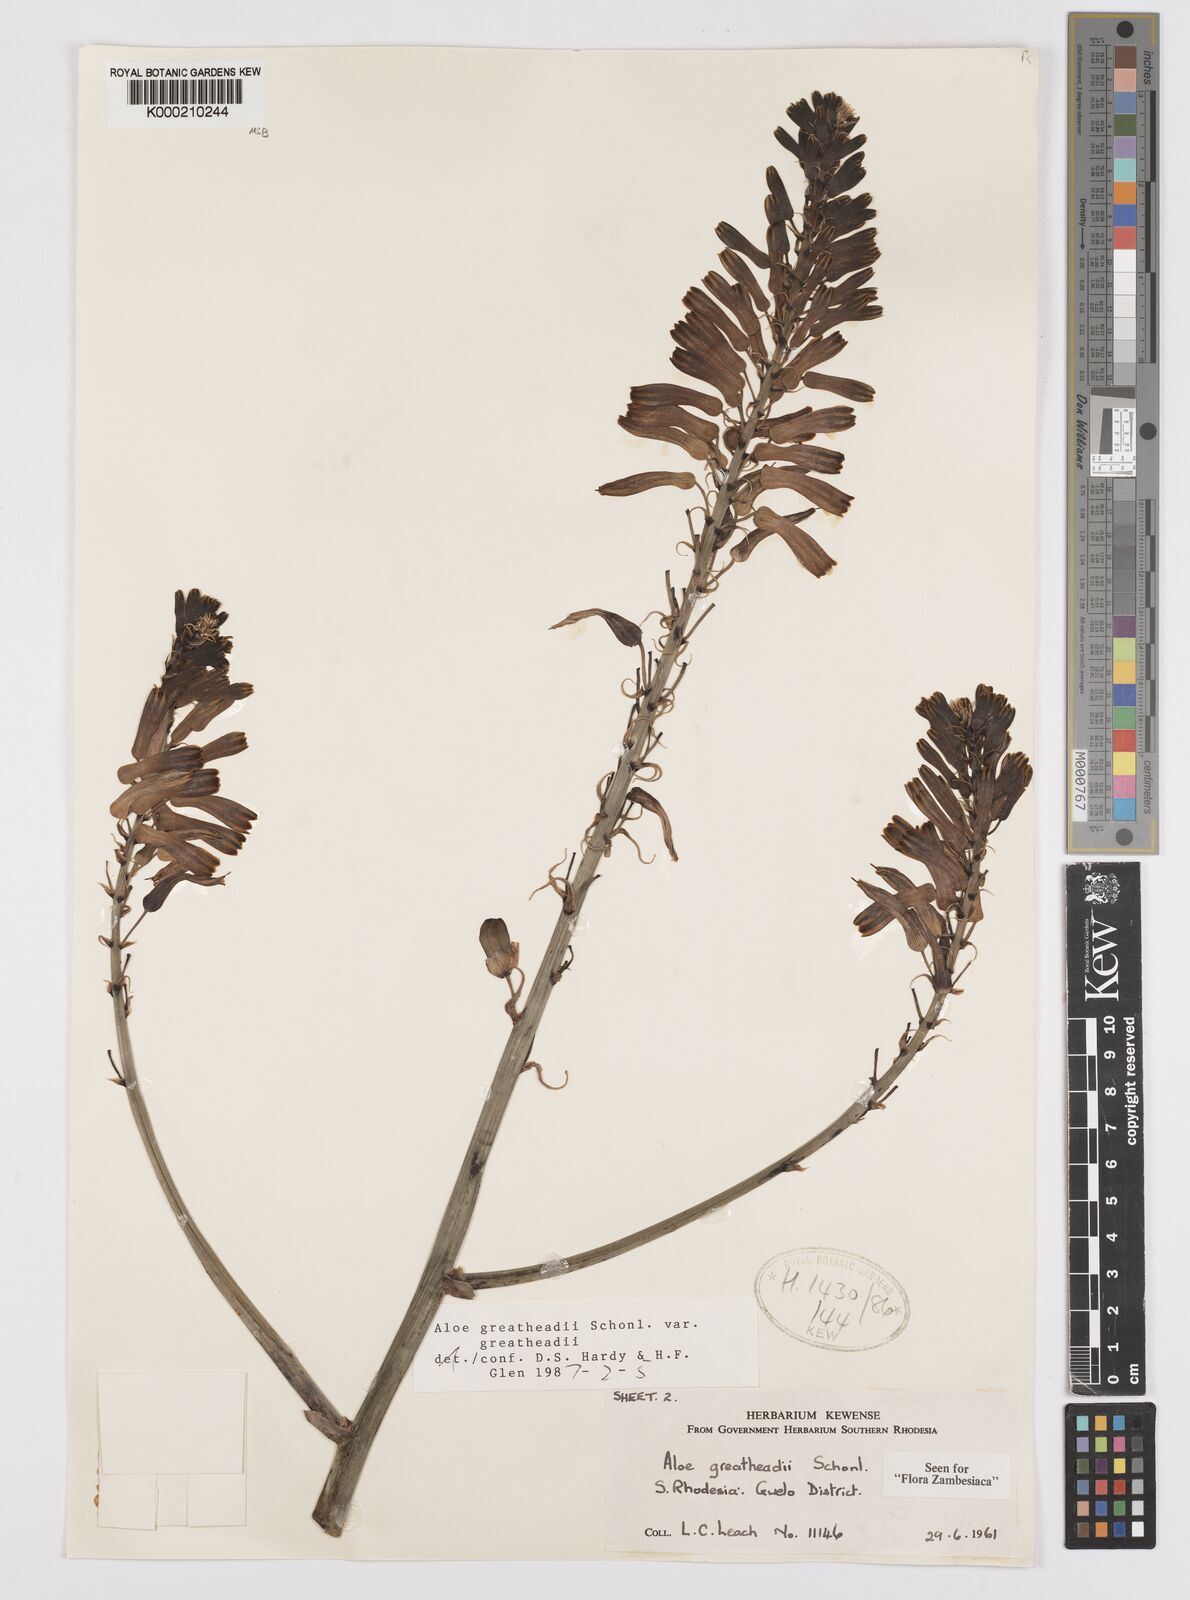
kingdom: Plantae
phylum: Tracheophyta
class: Liliopsida
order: Asparagales
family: Asphodelaceae
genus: Aloe
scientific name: Aloe greatheadii
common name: Greathead's aloe
